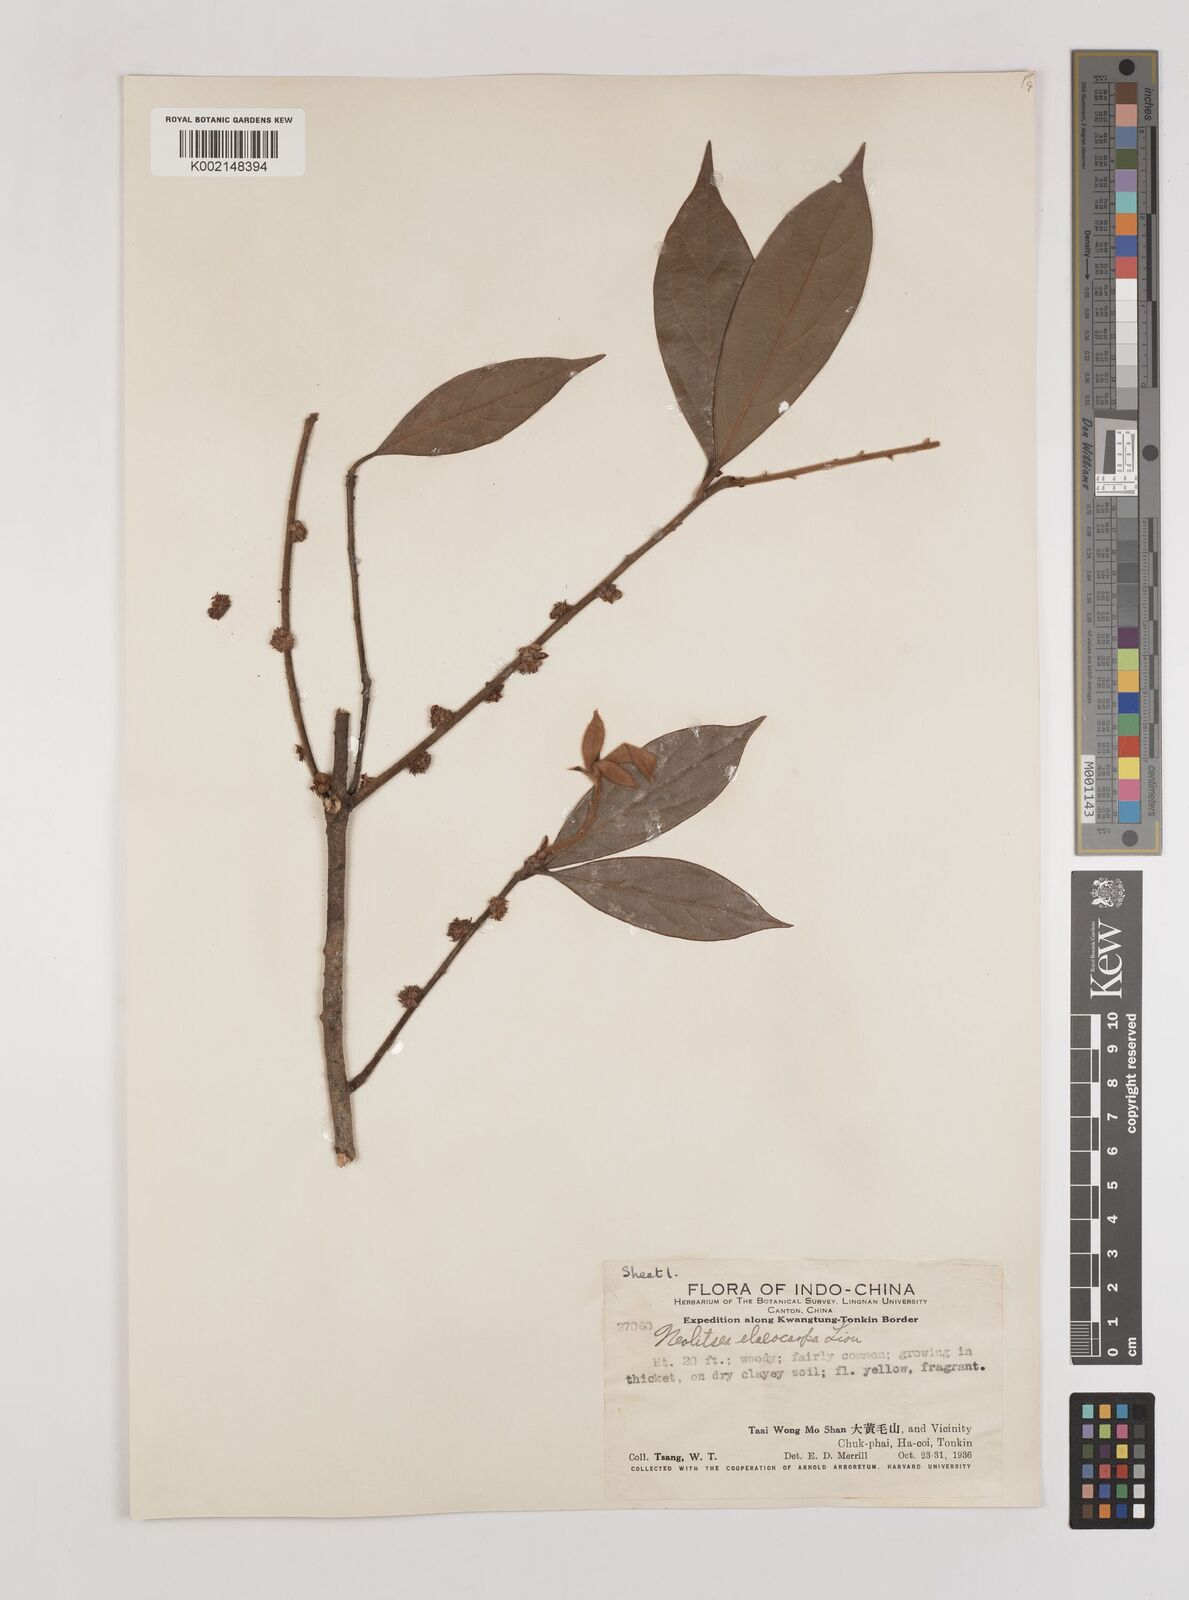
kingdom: Plantae
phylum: Tracheophyta
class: Magnoliopsida
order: Laurales
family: Lauraceae
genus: Neolitsea
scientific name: Neolitsea elaeocarpa
